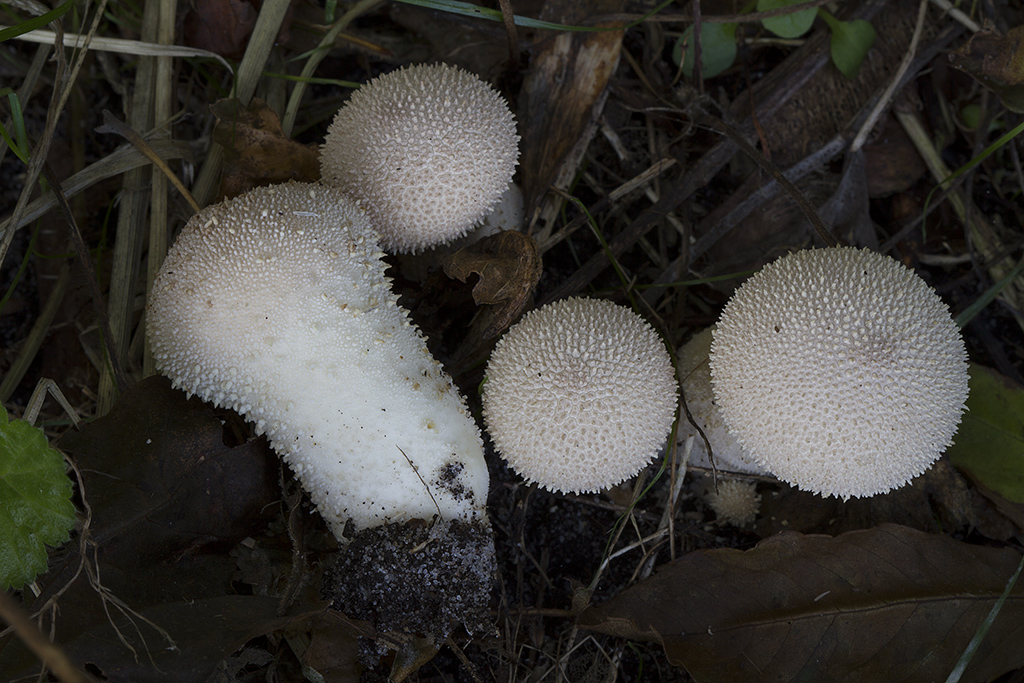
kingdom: Fungi
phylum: Basidiomycota
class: Agaricomycetes
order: Agaricales
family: Lycoperdaceae
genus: Lycoperdon
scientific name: Lycoperdon perlatum
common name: krystal-støvbold
